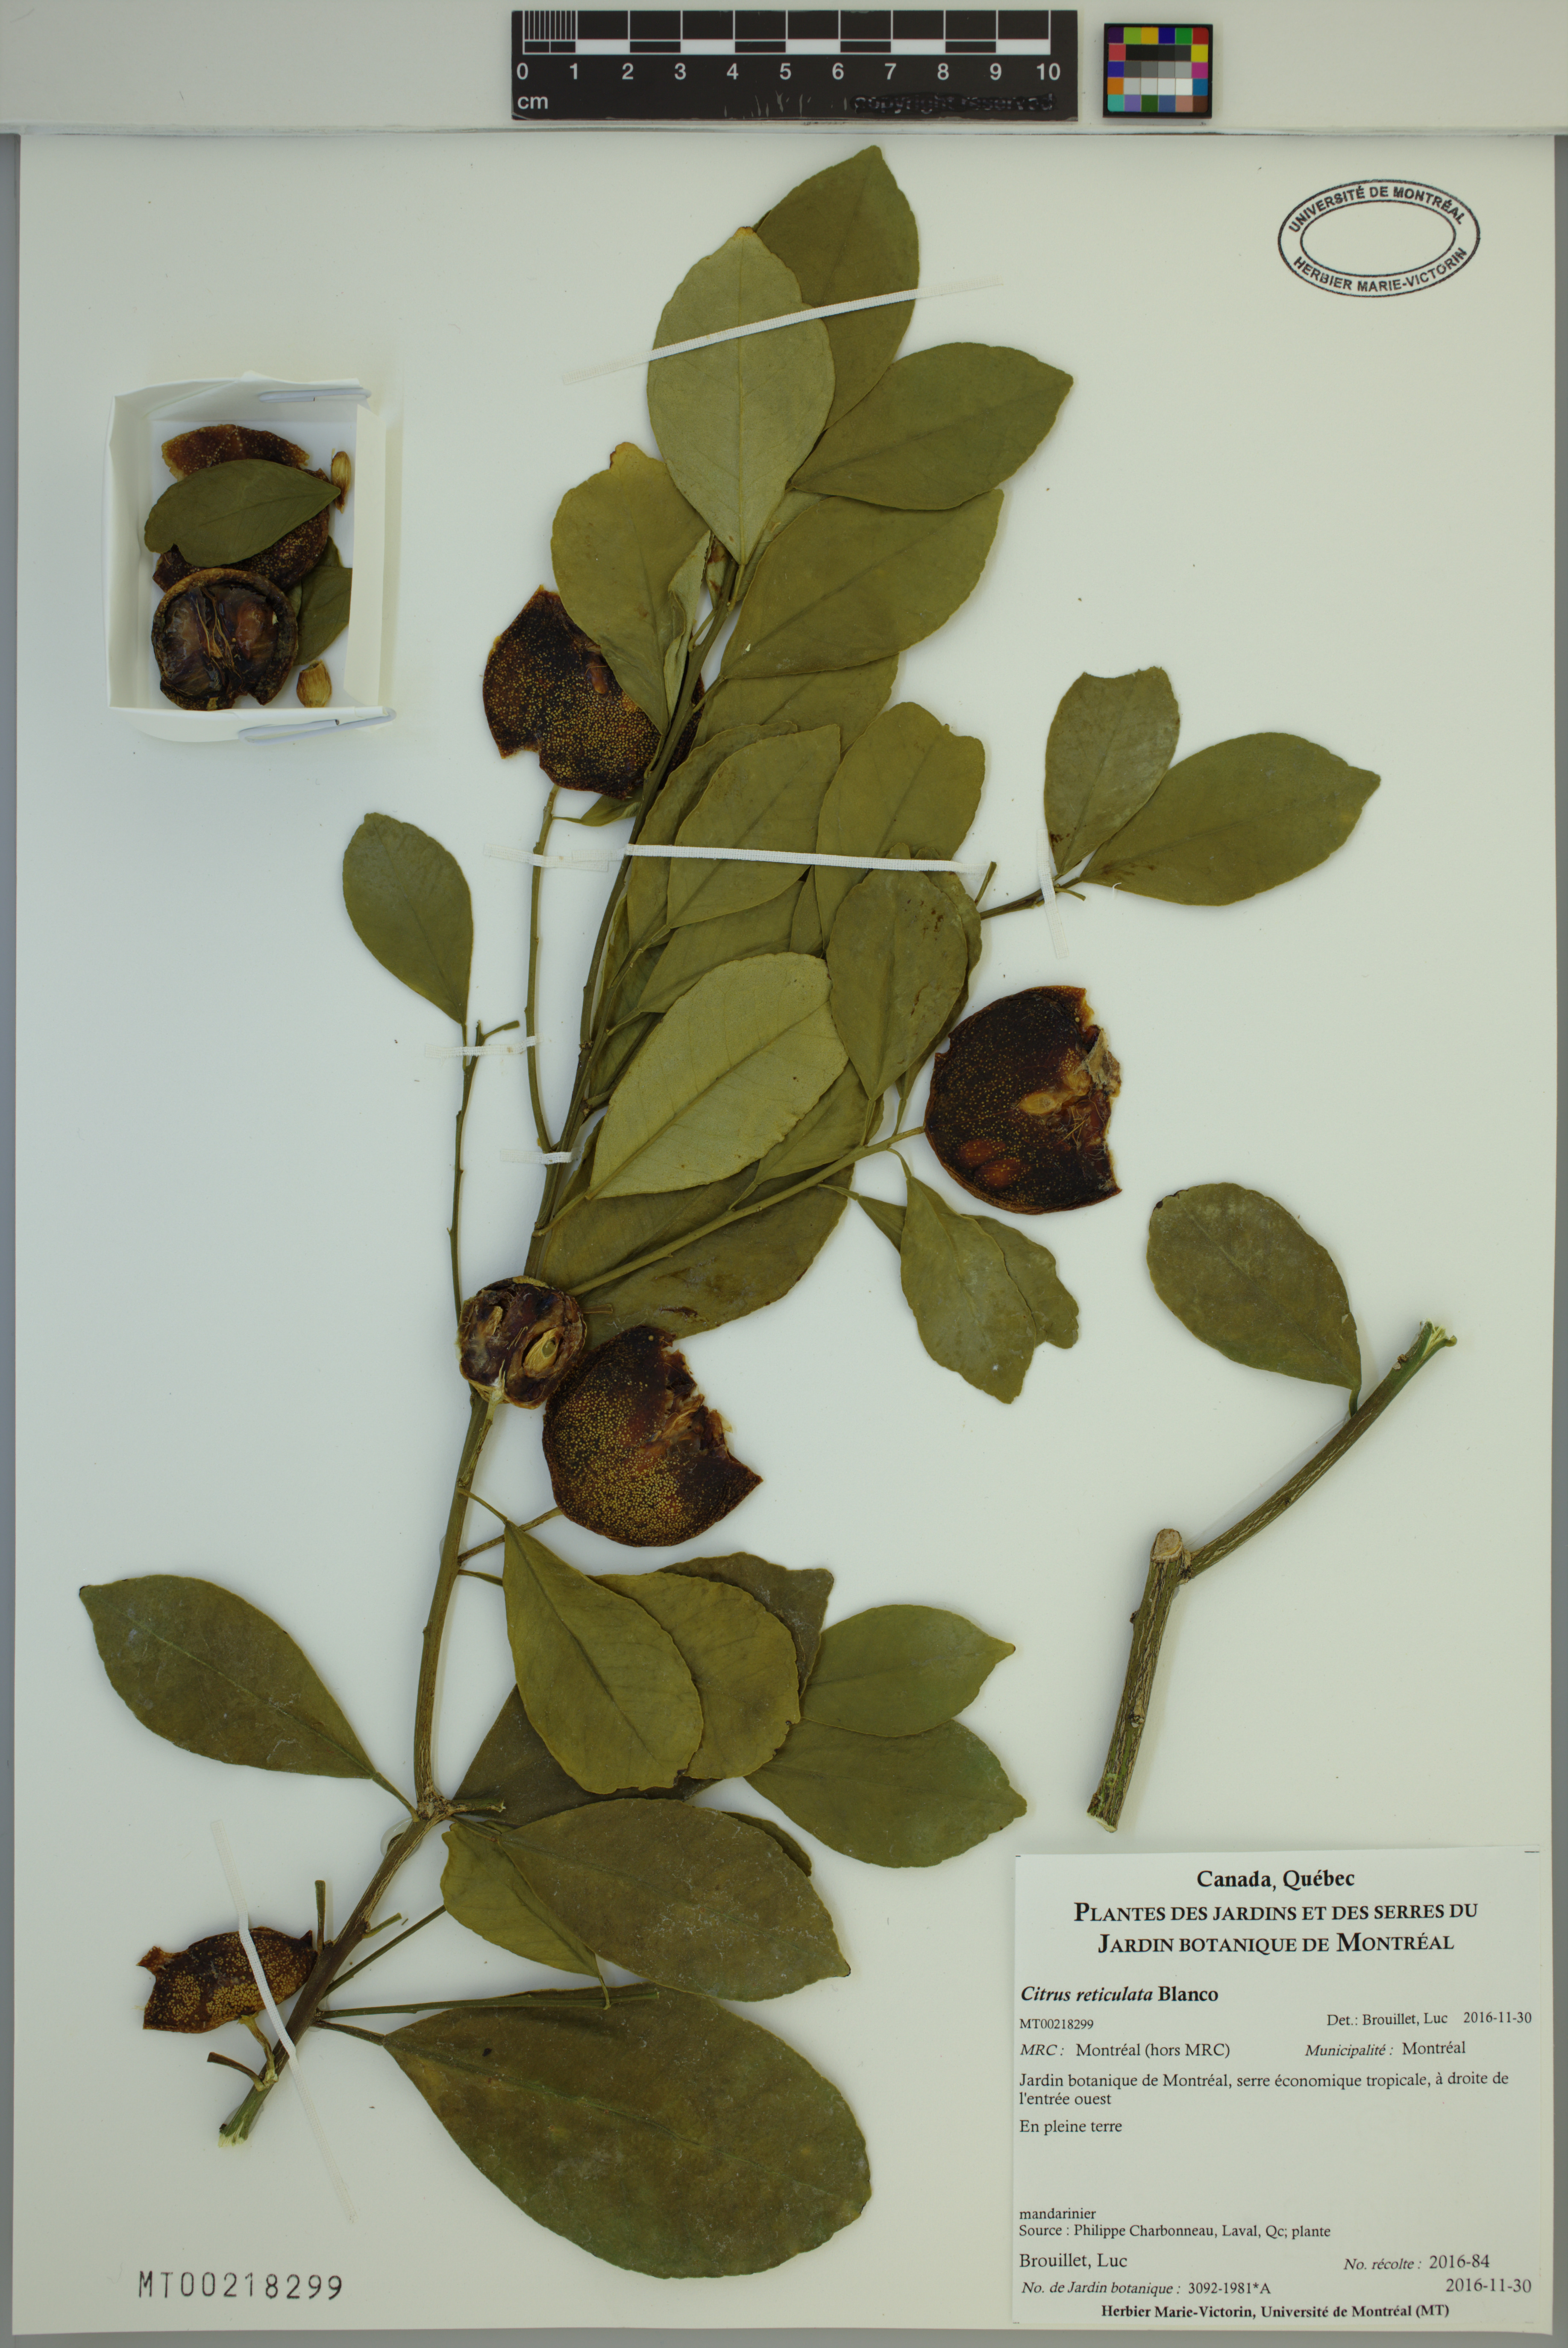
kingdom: Plantae
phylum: Tracheophyta
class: Magnoliopsida
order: Sapindales
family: Rutaceae
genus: Citrus
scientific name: Citrus reticulata
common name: Tangerine
